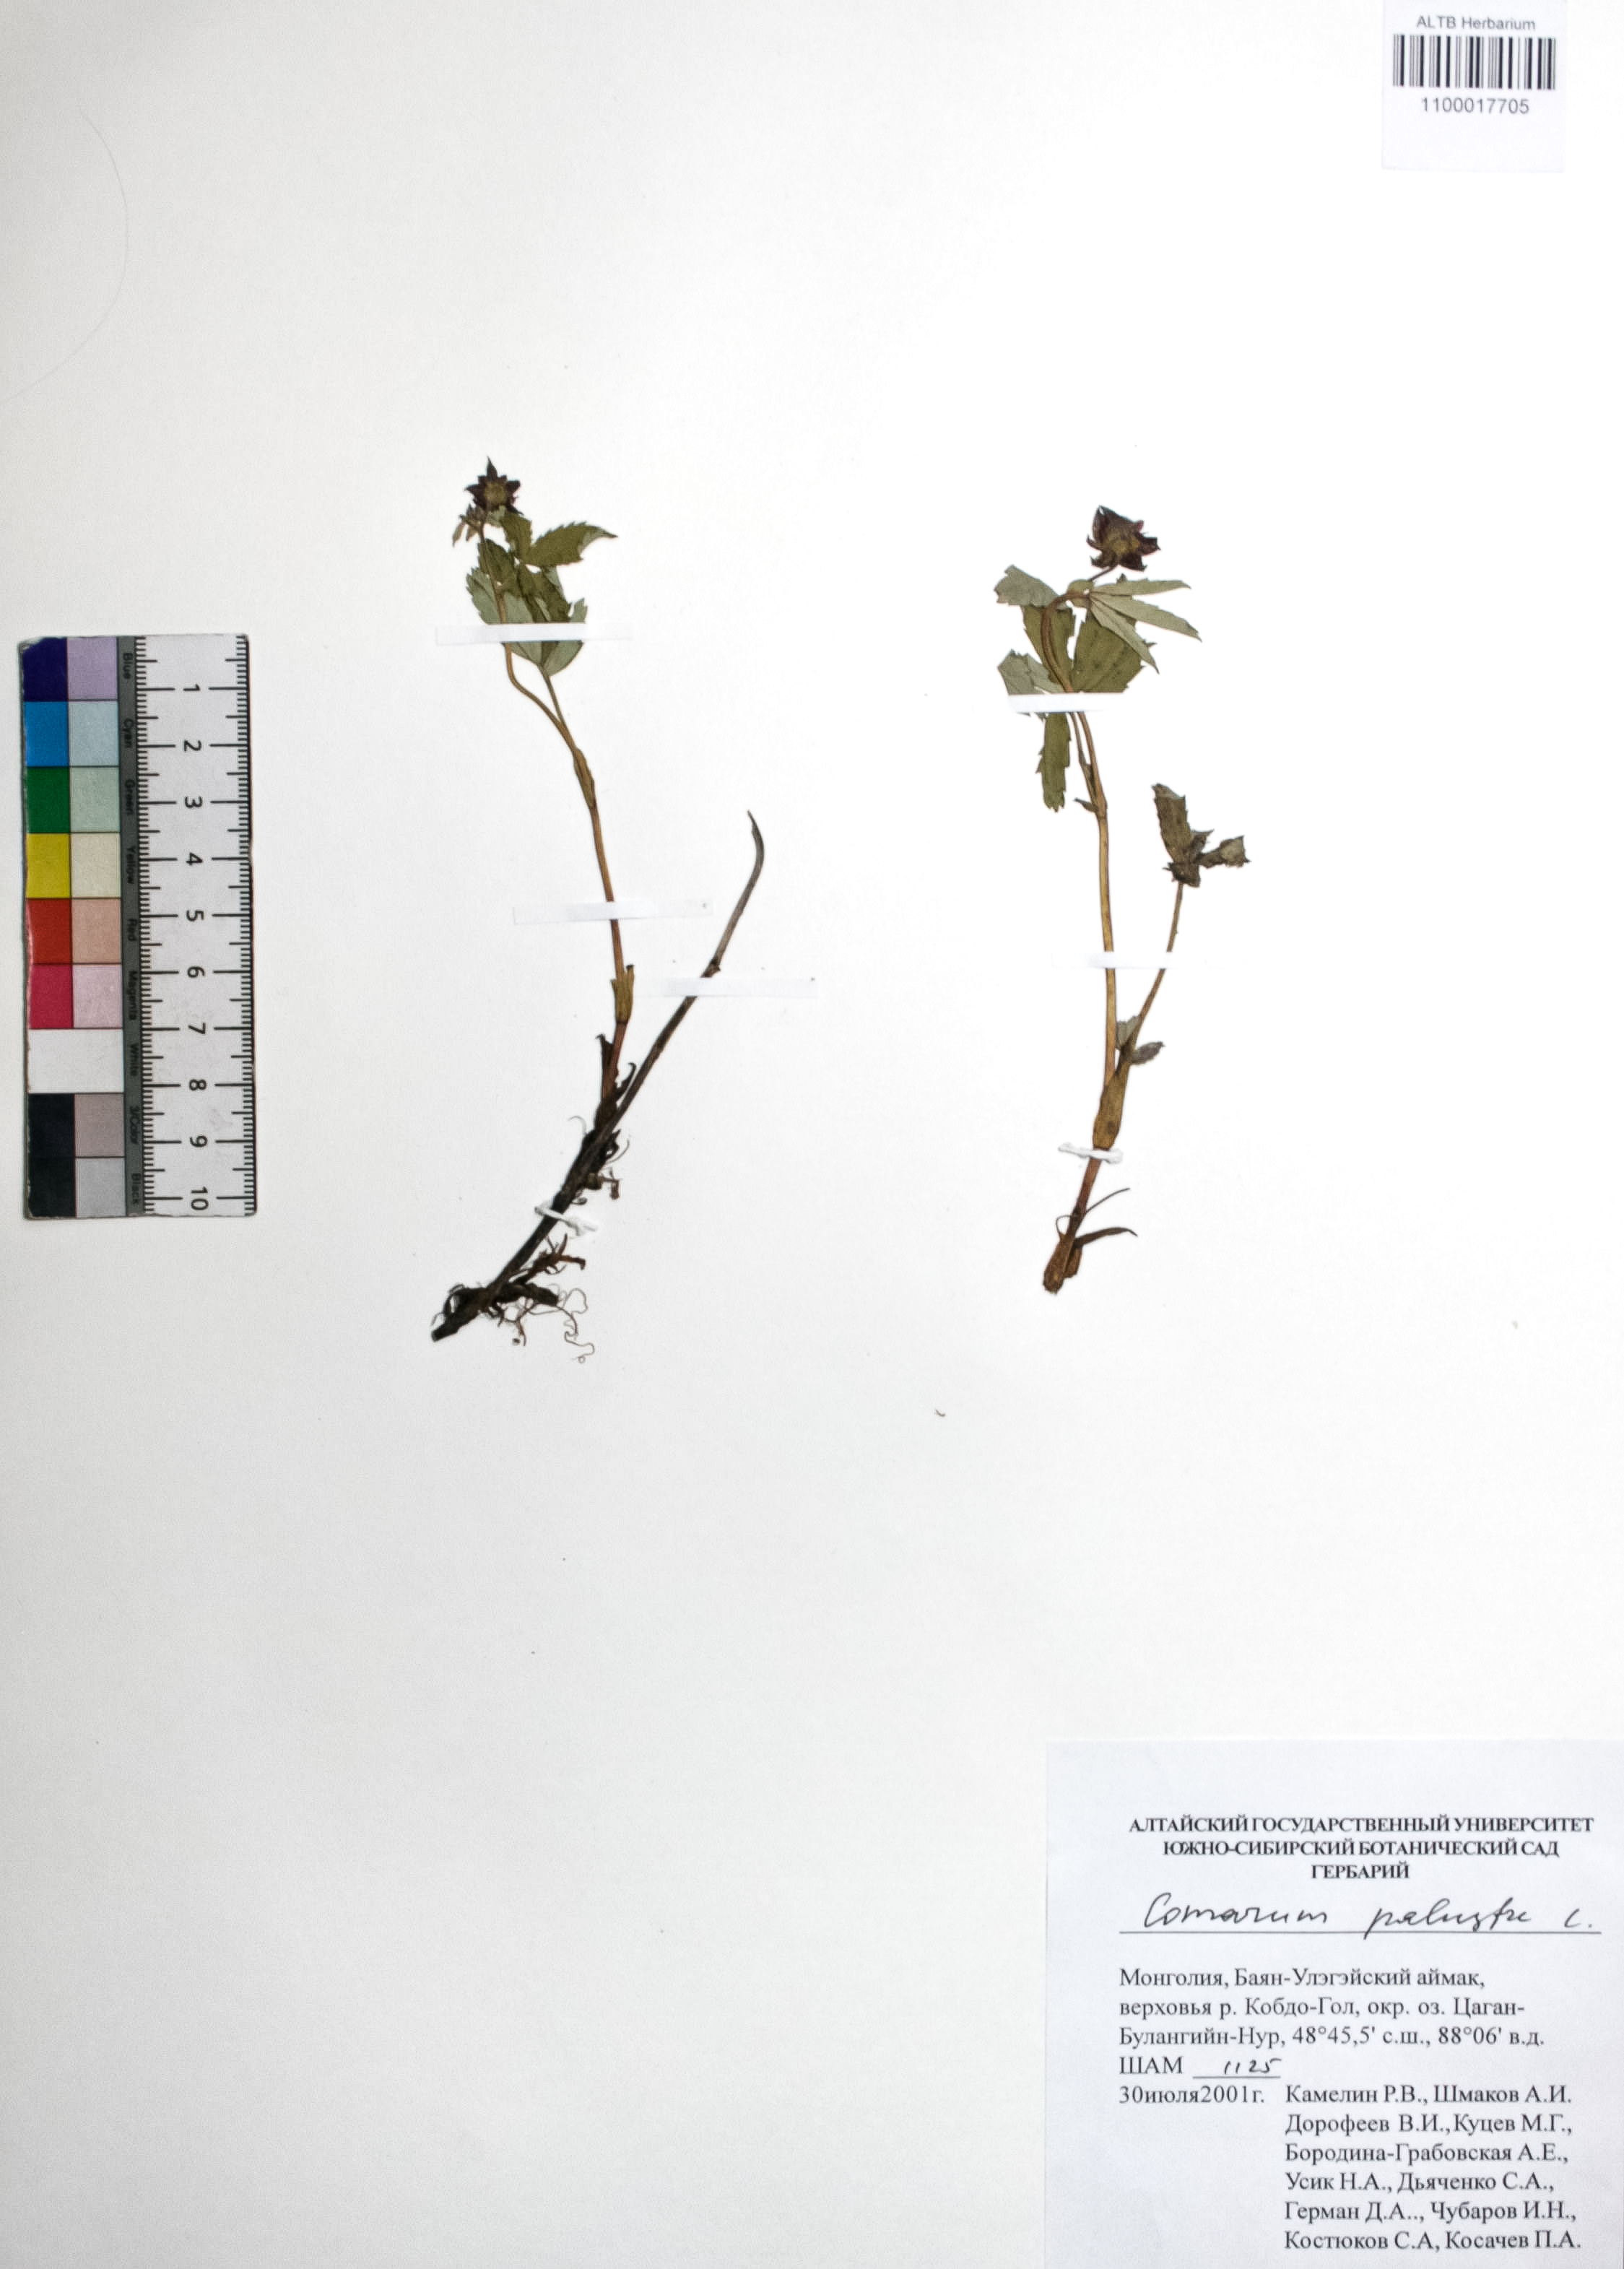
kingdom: Plantae
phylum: Tracheophyta
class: Magnoliopsida
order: Rosales
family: Rosaceae
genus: Comarum
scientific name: Comarum palustre
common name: Marsh cinquefoil
